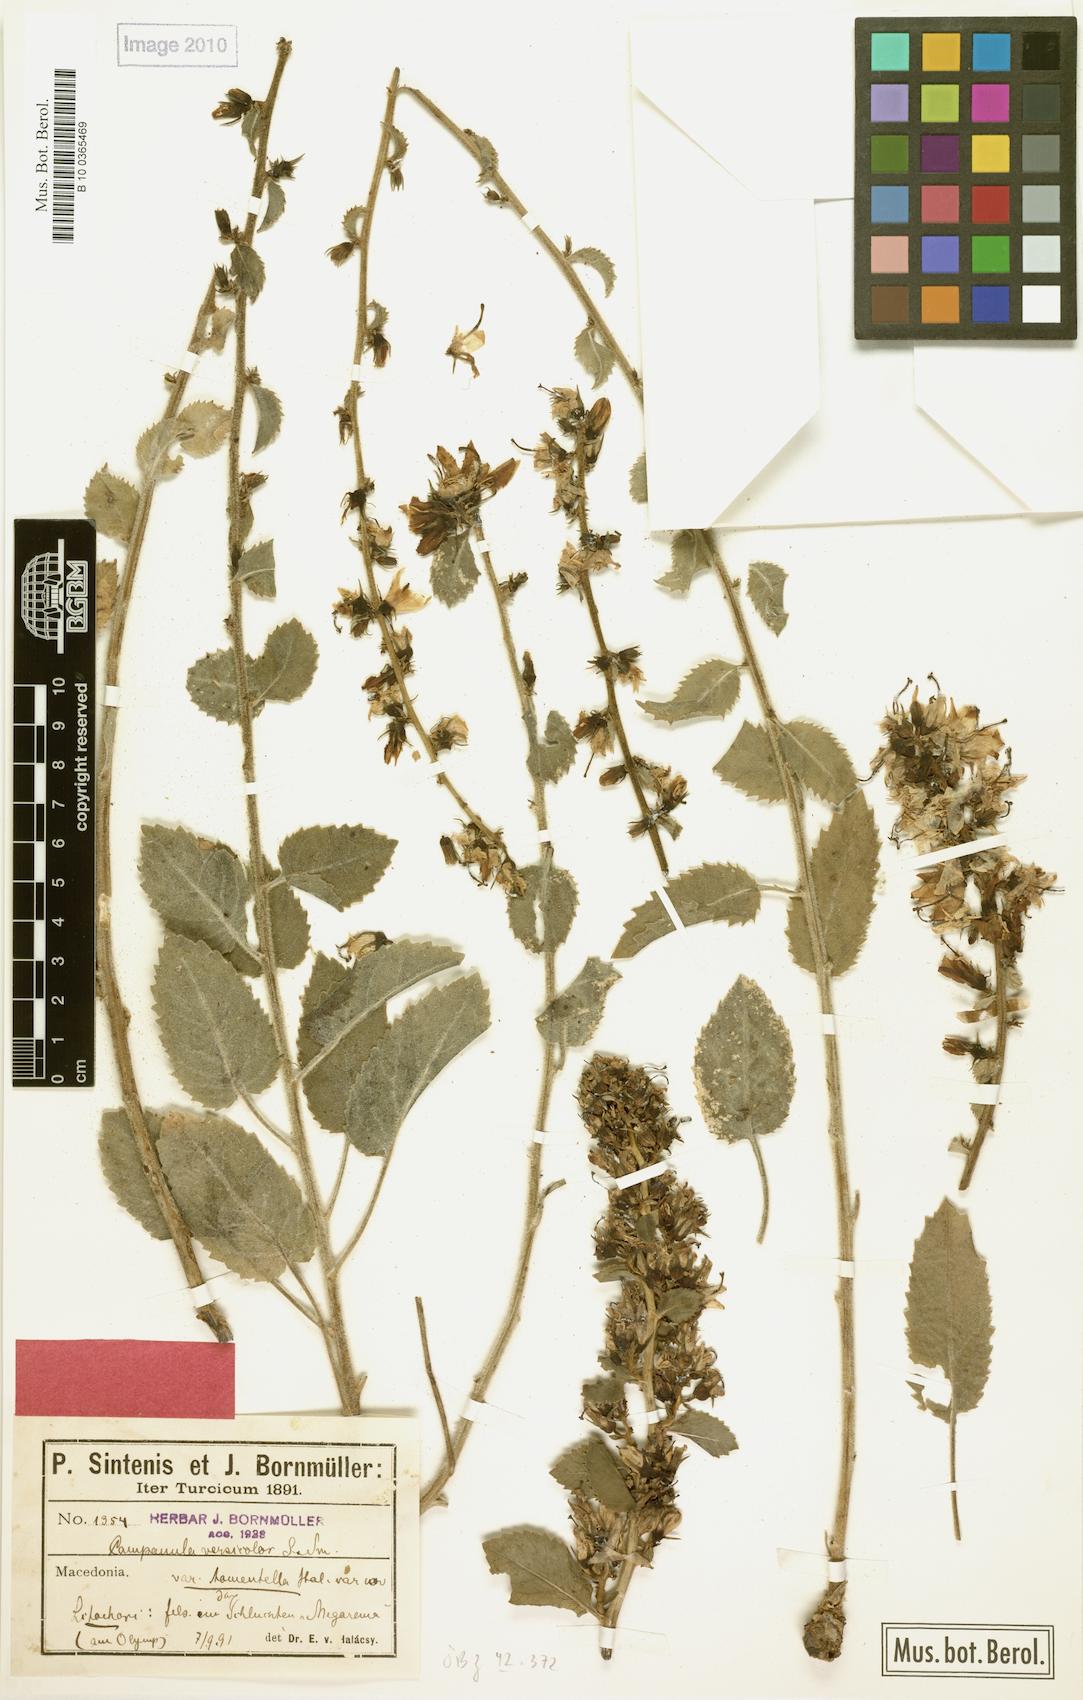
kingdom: Plantae
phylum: Tracheophyta
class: Magnoliopsida
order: Asterales
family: Campanulaceae
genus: Campanula
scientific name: Campanula versicolor
